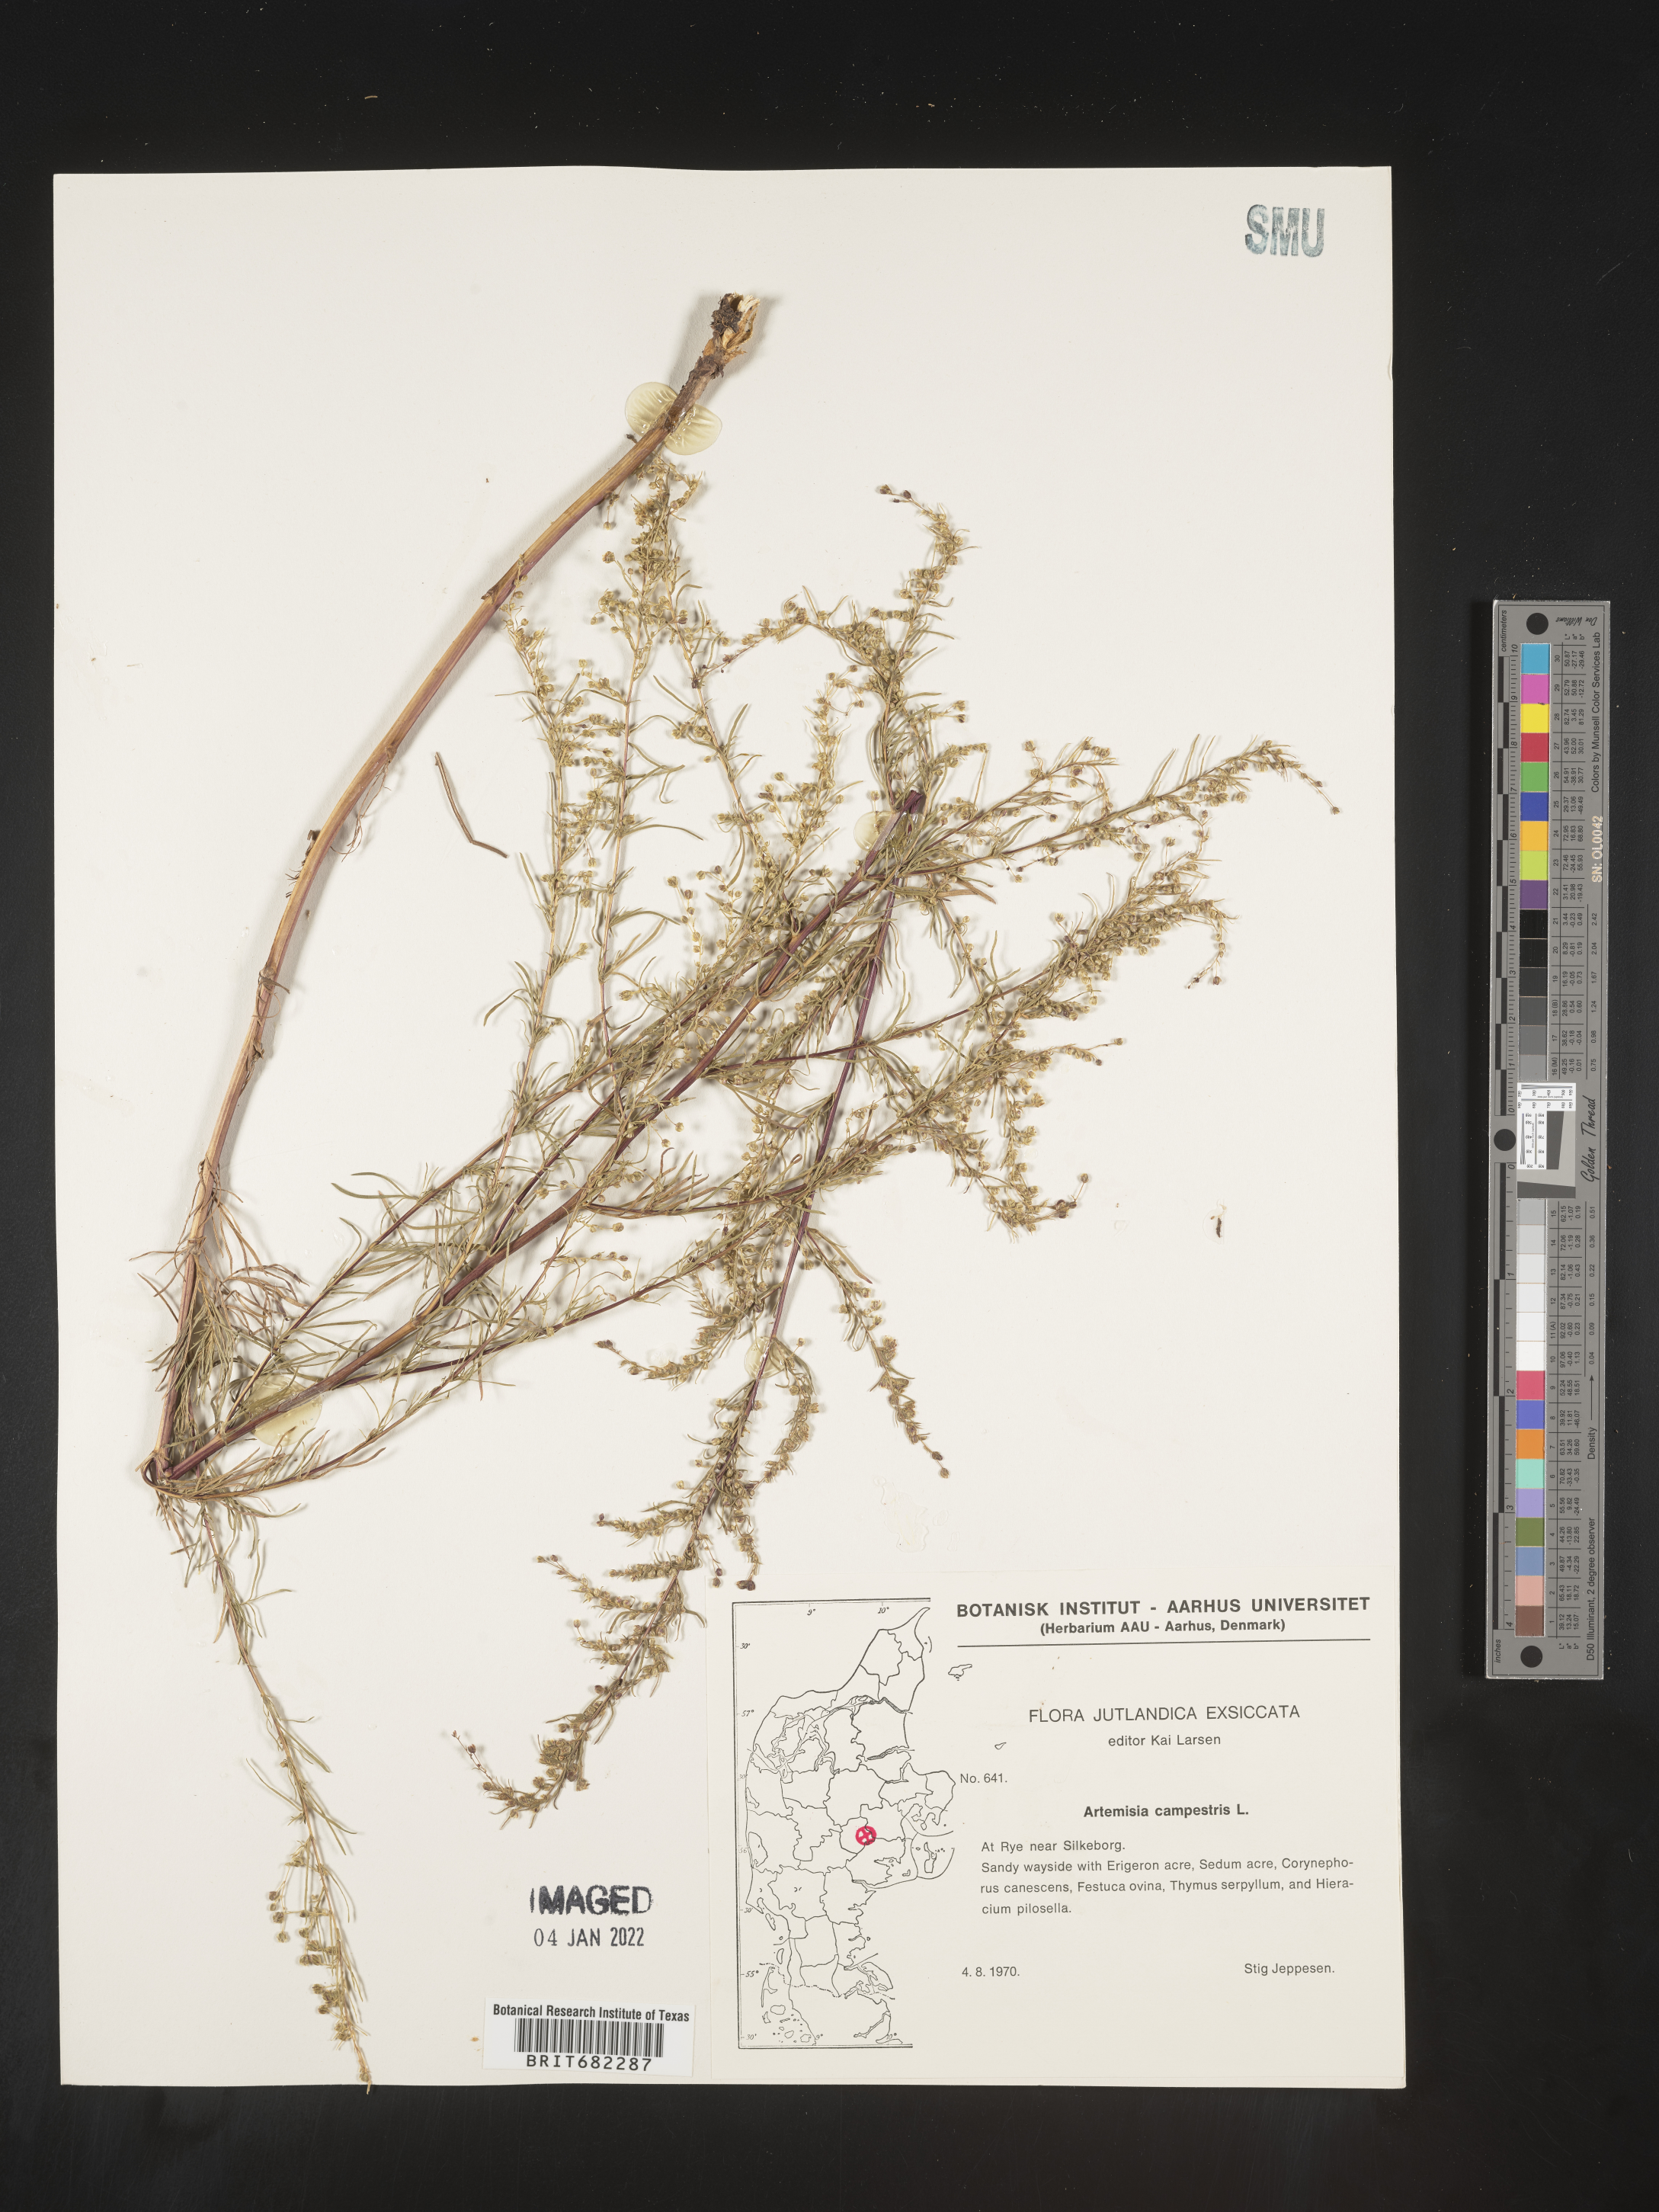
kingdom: Plantae
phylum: Tracheophyta
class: Magnoliopsida
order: Asterales
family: Asteraceae
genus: Artemisia
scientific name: Artemisia campestris
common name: Field wormwood
